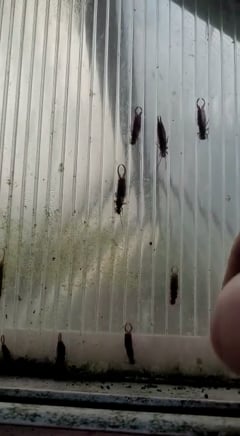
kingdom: Animalia
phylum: Arthropoda
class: Insecta
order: Dermaptera
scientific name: Dermaptera
